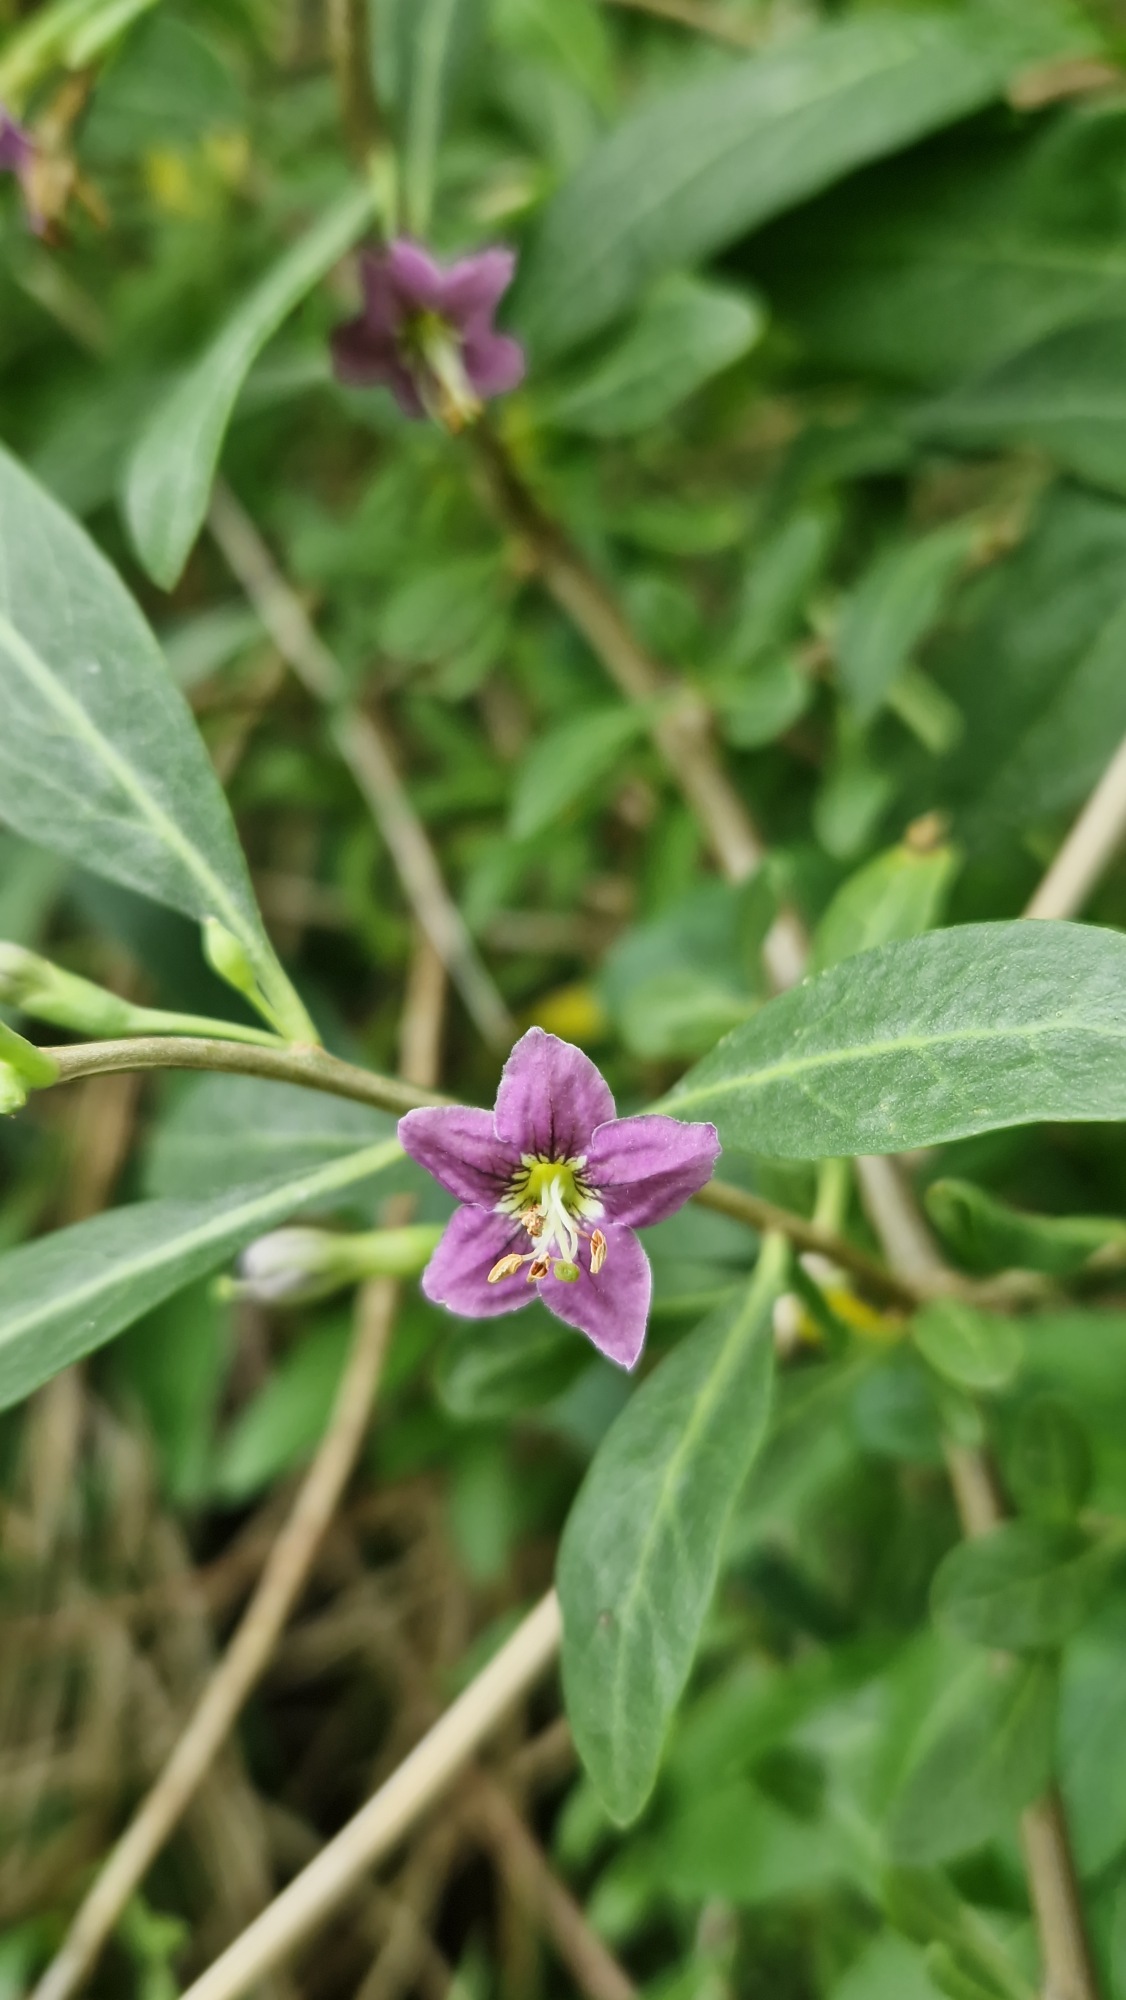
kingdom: Plantae
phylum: Tracheophyta
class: Magnoliopsida
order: Solanales
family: Solanaceae
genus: Lycium
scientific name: Lycium barbarum
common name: Bukketorn
